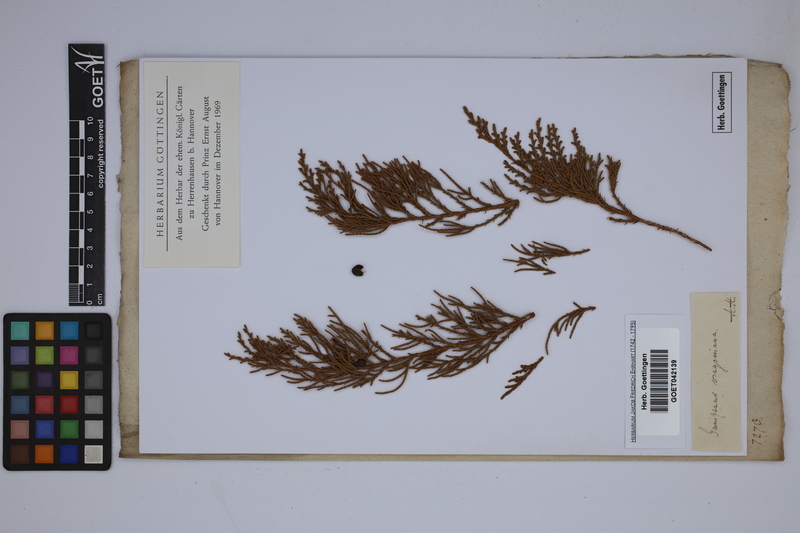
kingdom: Plantae
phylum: Tracheophyta
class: Pinopsida
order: Pinales
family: Cupressaceae
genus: Juniperus
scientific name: Juniperus virginiana
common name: Red juniper
